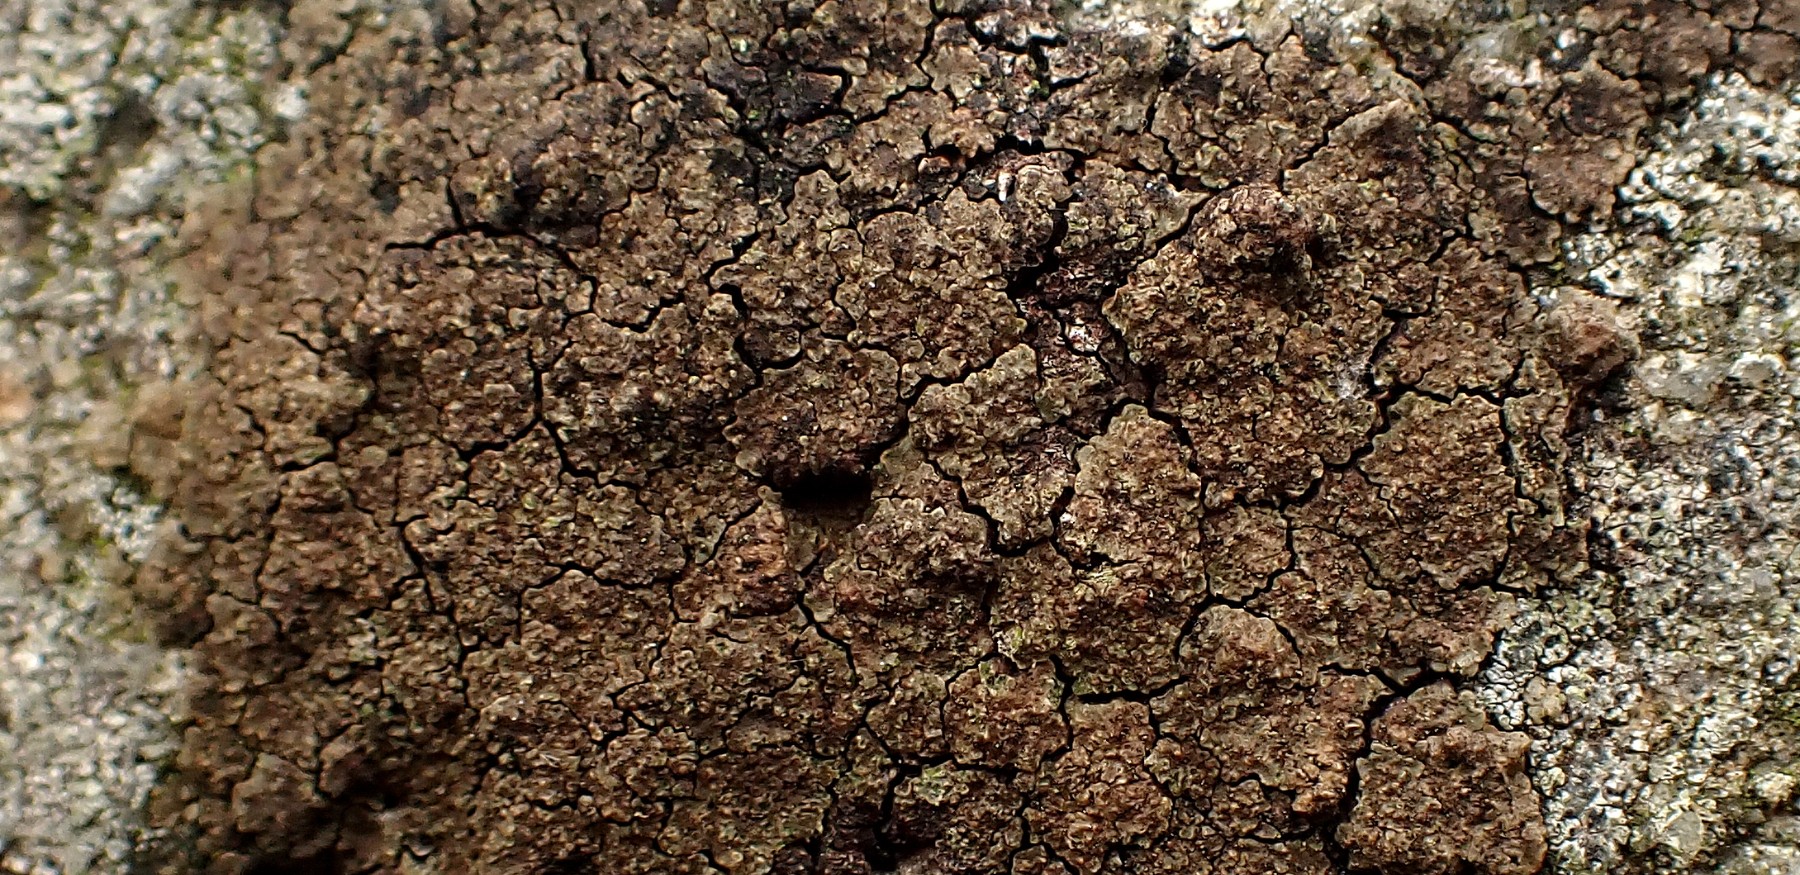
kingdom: Fungi
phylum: Ascomycota
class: Lecanoromycetes
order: Acarosporales
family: Acarosporaceae
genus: Acarospora
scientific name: Acarospora fuscata
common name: brun småsporelav
